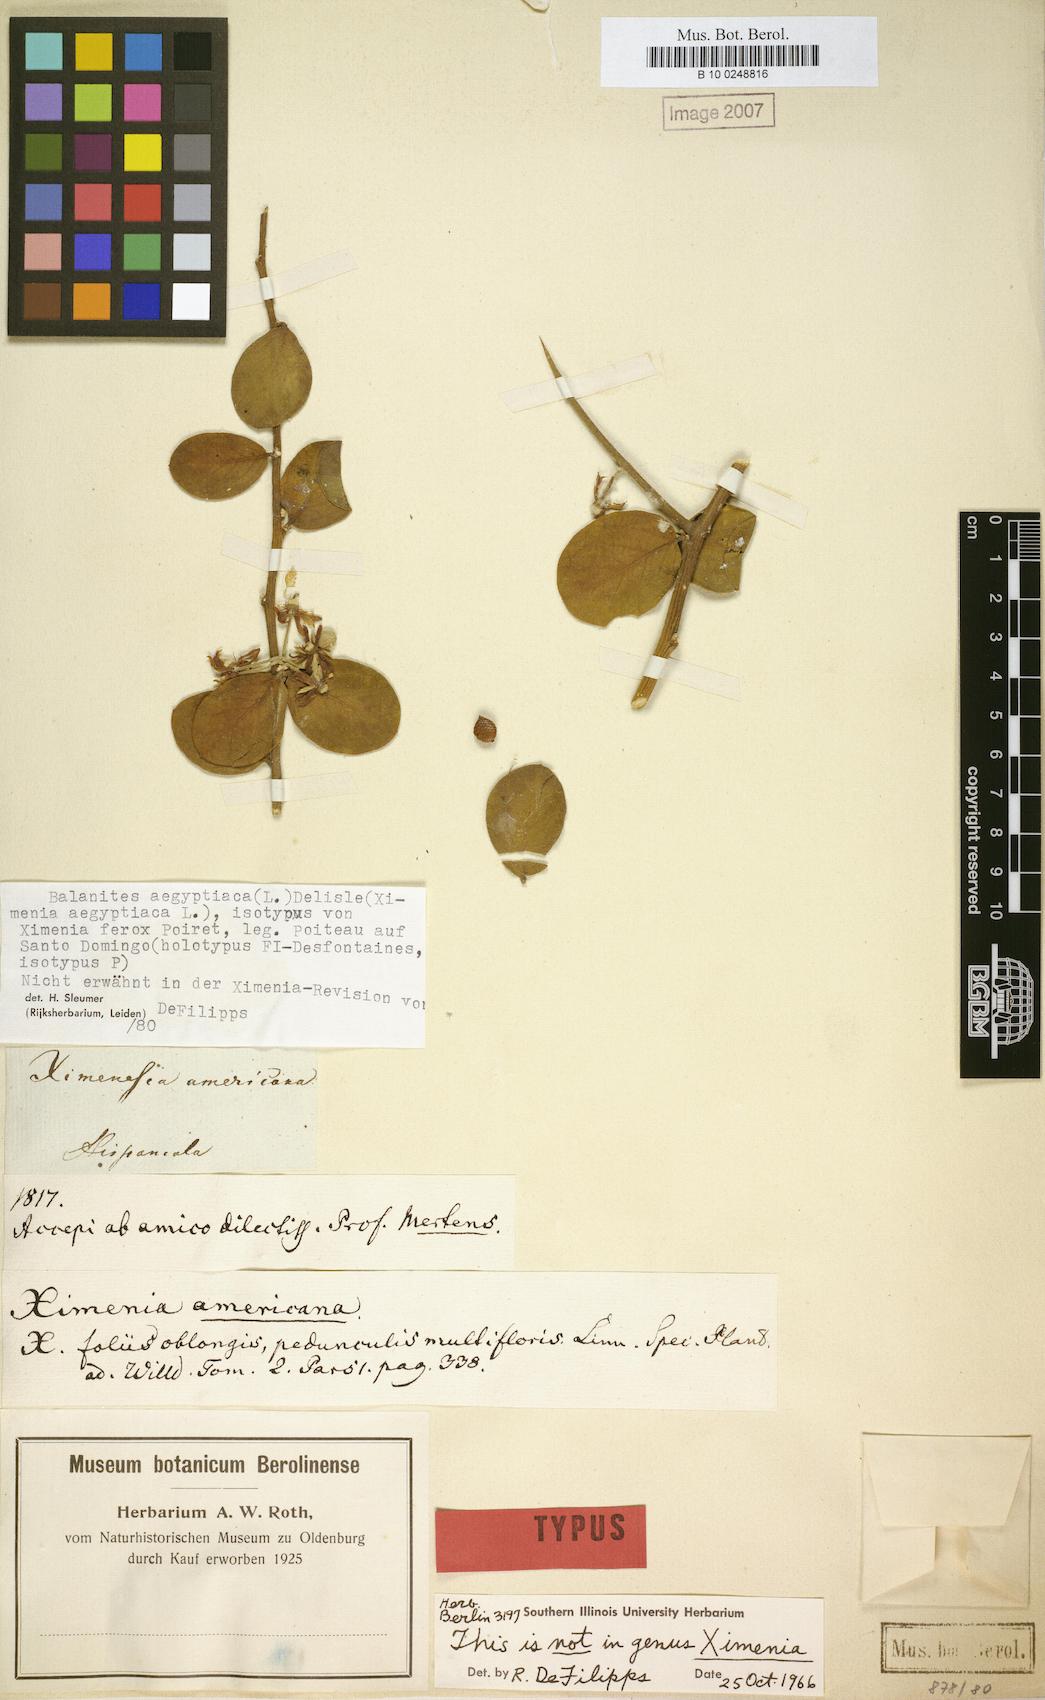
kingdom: Plantae
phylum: Tracheophyta
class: Magnoliopsida
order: Zygophyllales
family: Zygophyllaceae
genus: Balanites
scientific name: Balanites aegyptiaca
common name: Balanites
